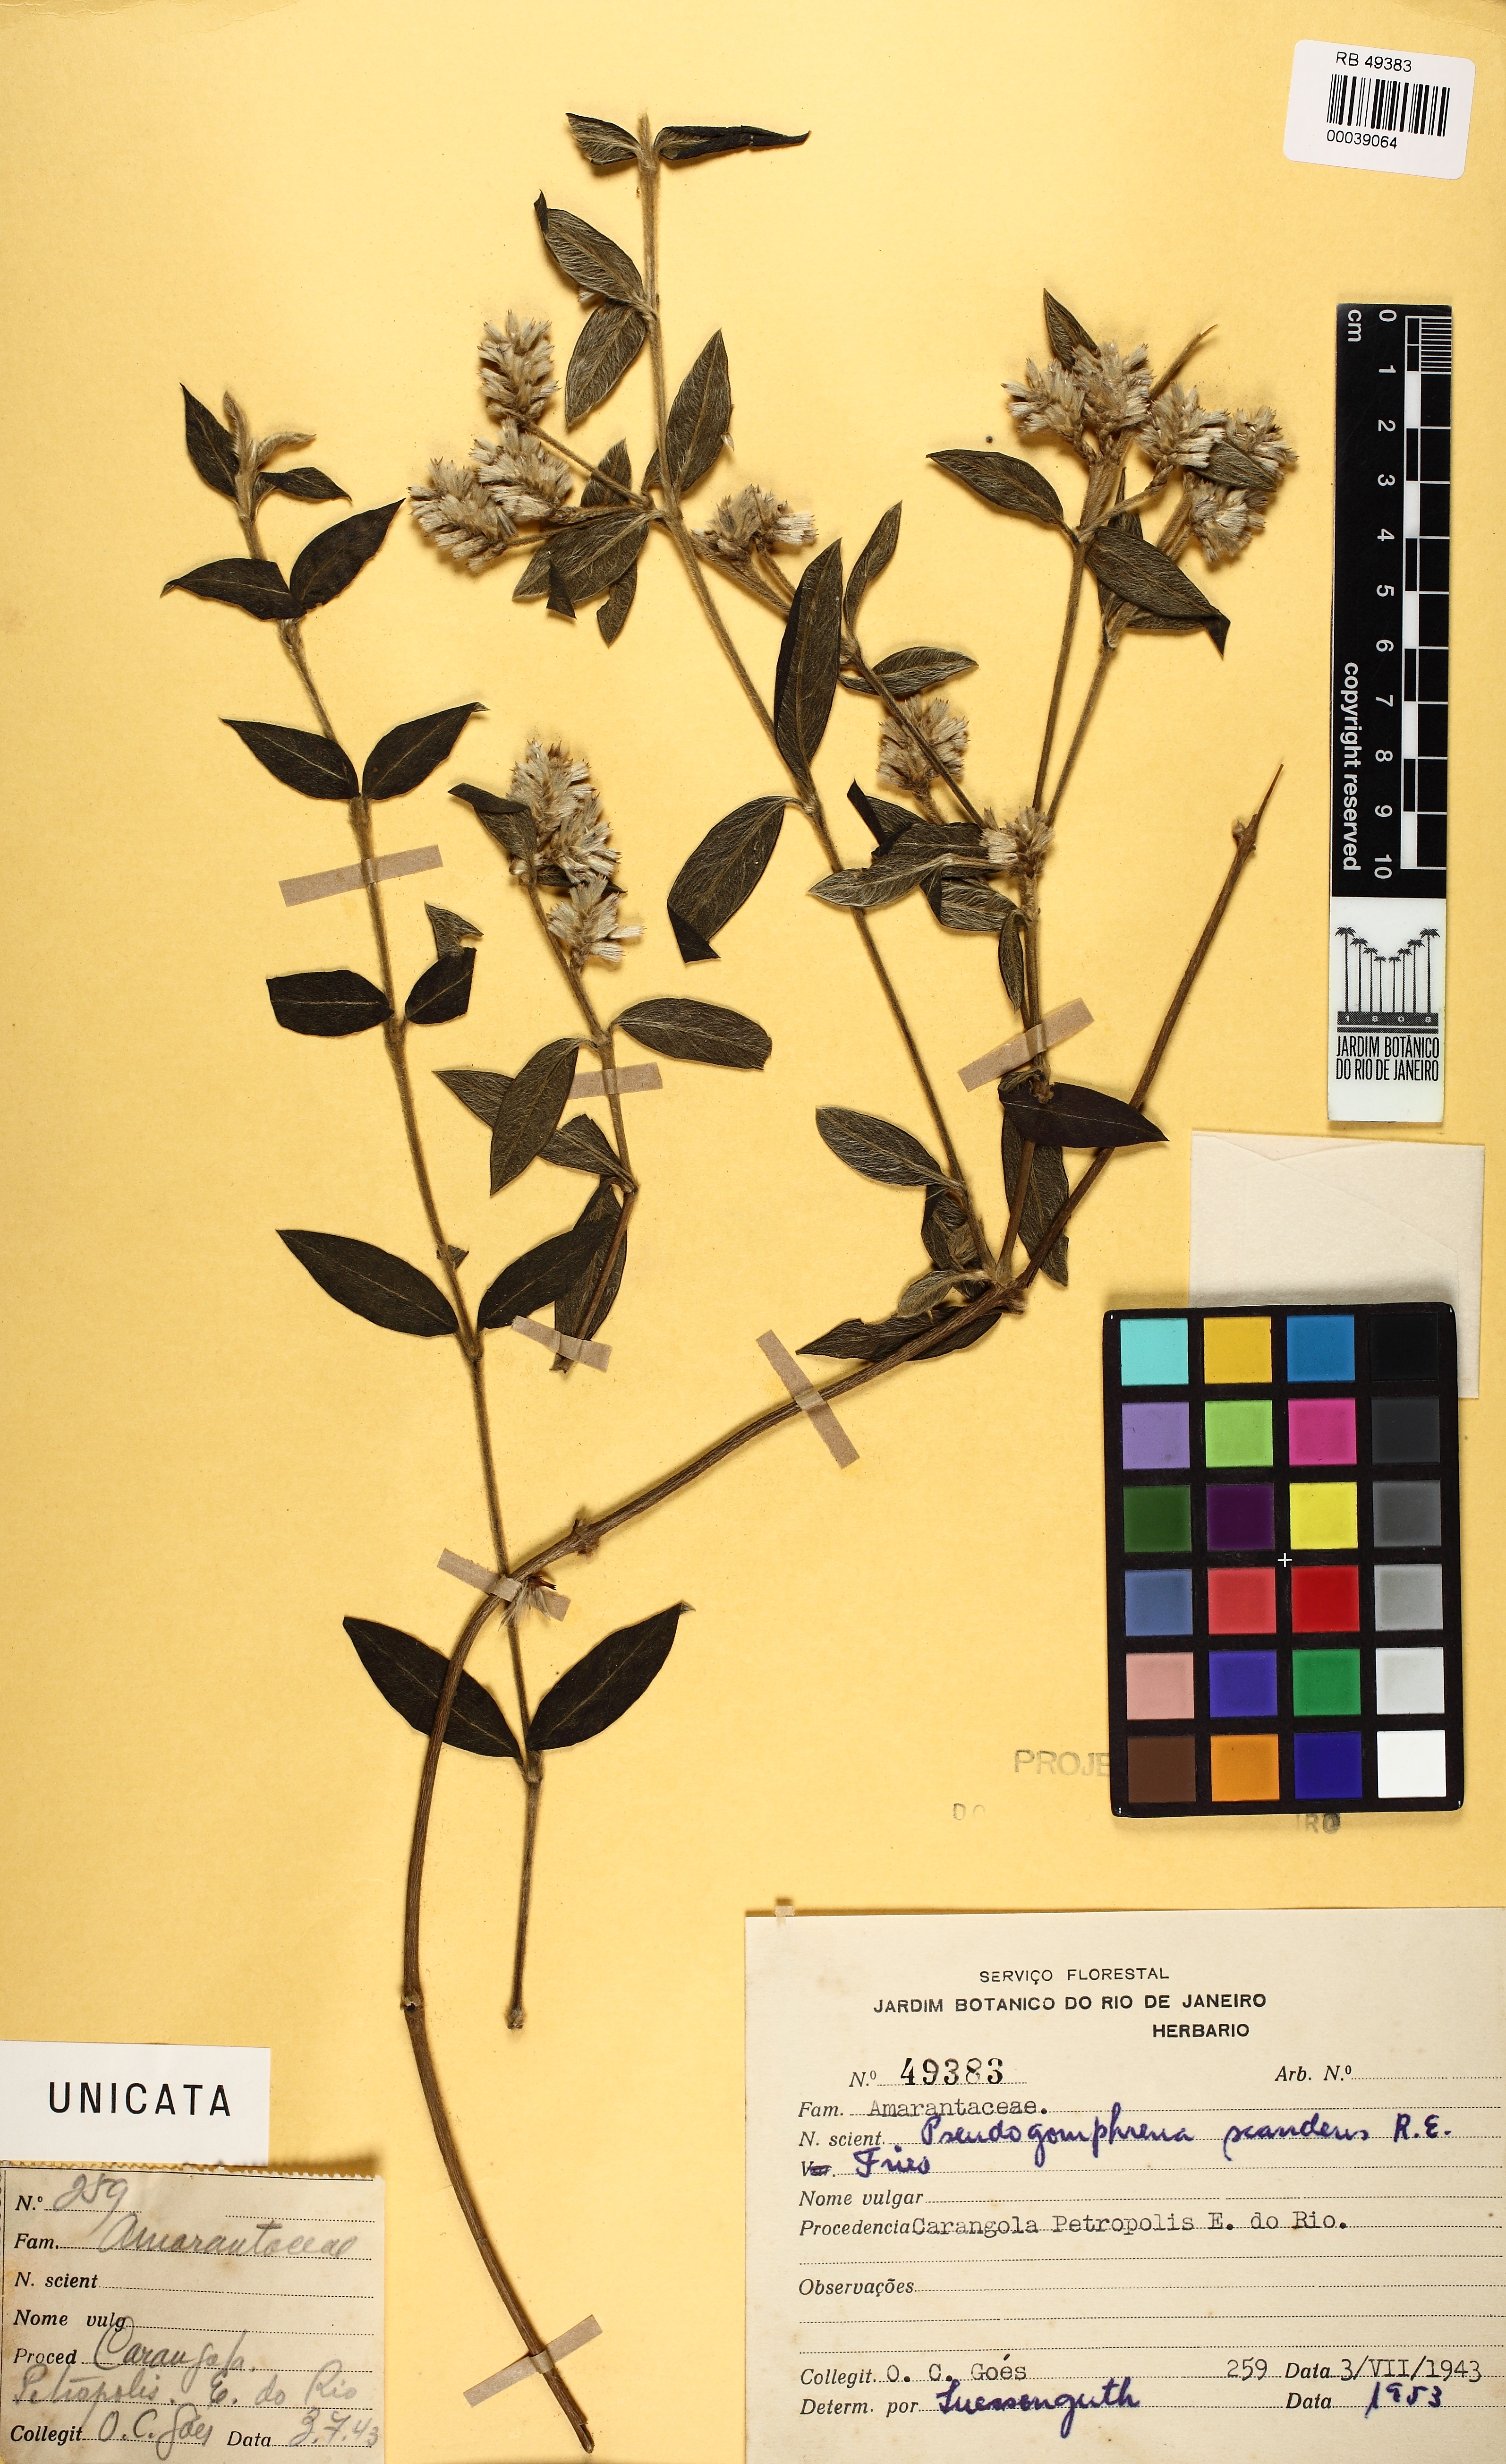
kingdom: Plantae
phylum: Tracheophyta
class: Magnoliopsida
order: Caryophyllales
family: Amaranthaceae
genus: Gomphrena
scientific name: Gomphrena scandens
